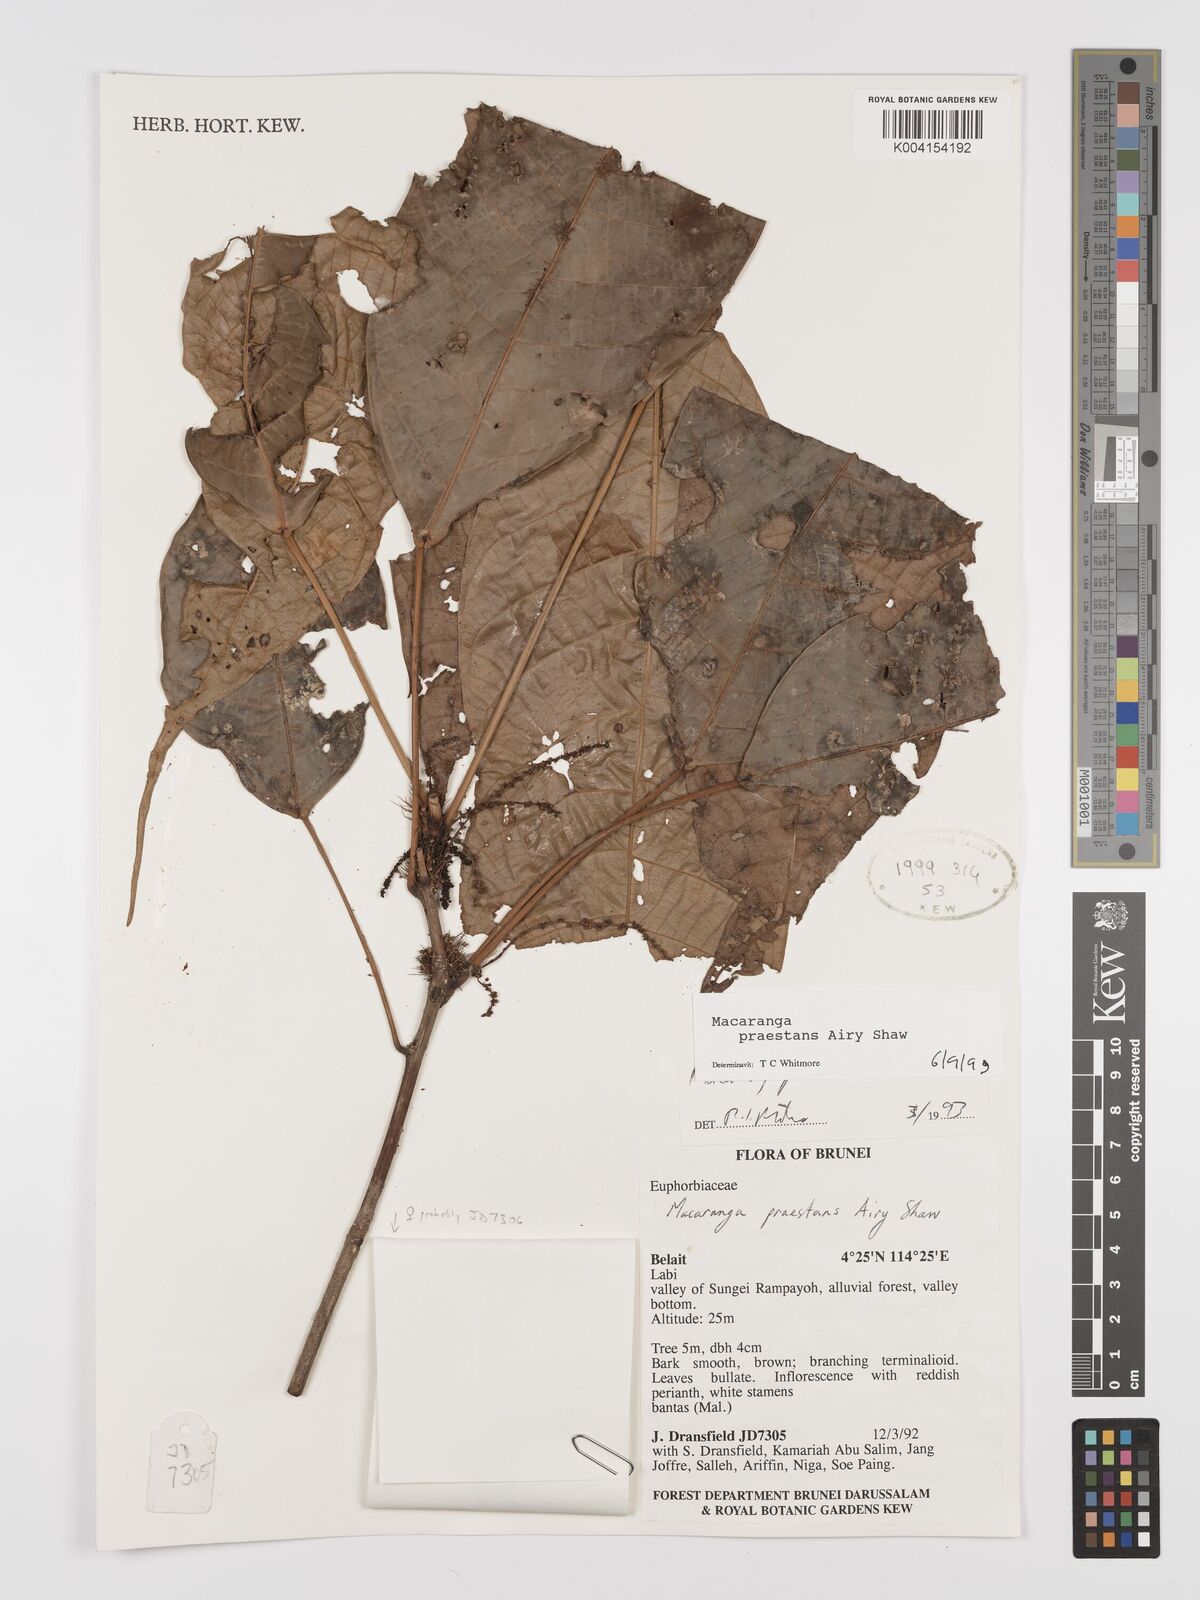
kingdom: Plantae
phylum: Tracheophyta
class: Magnoliopsida
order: Malpighiales
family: Euphorbiaceae
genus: Macaranga
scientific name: Macaranga praestans
